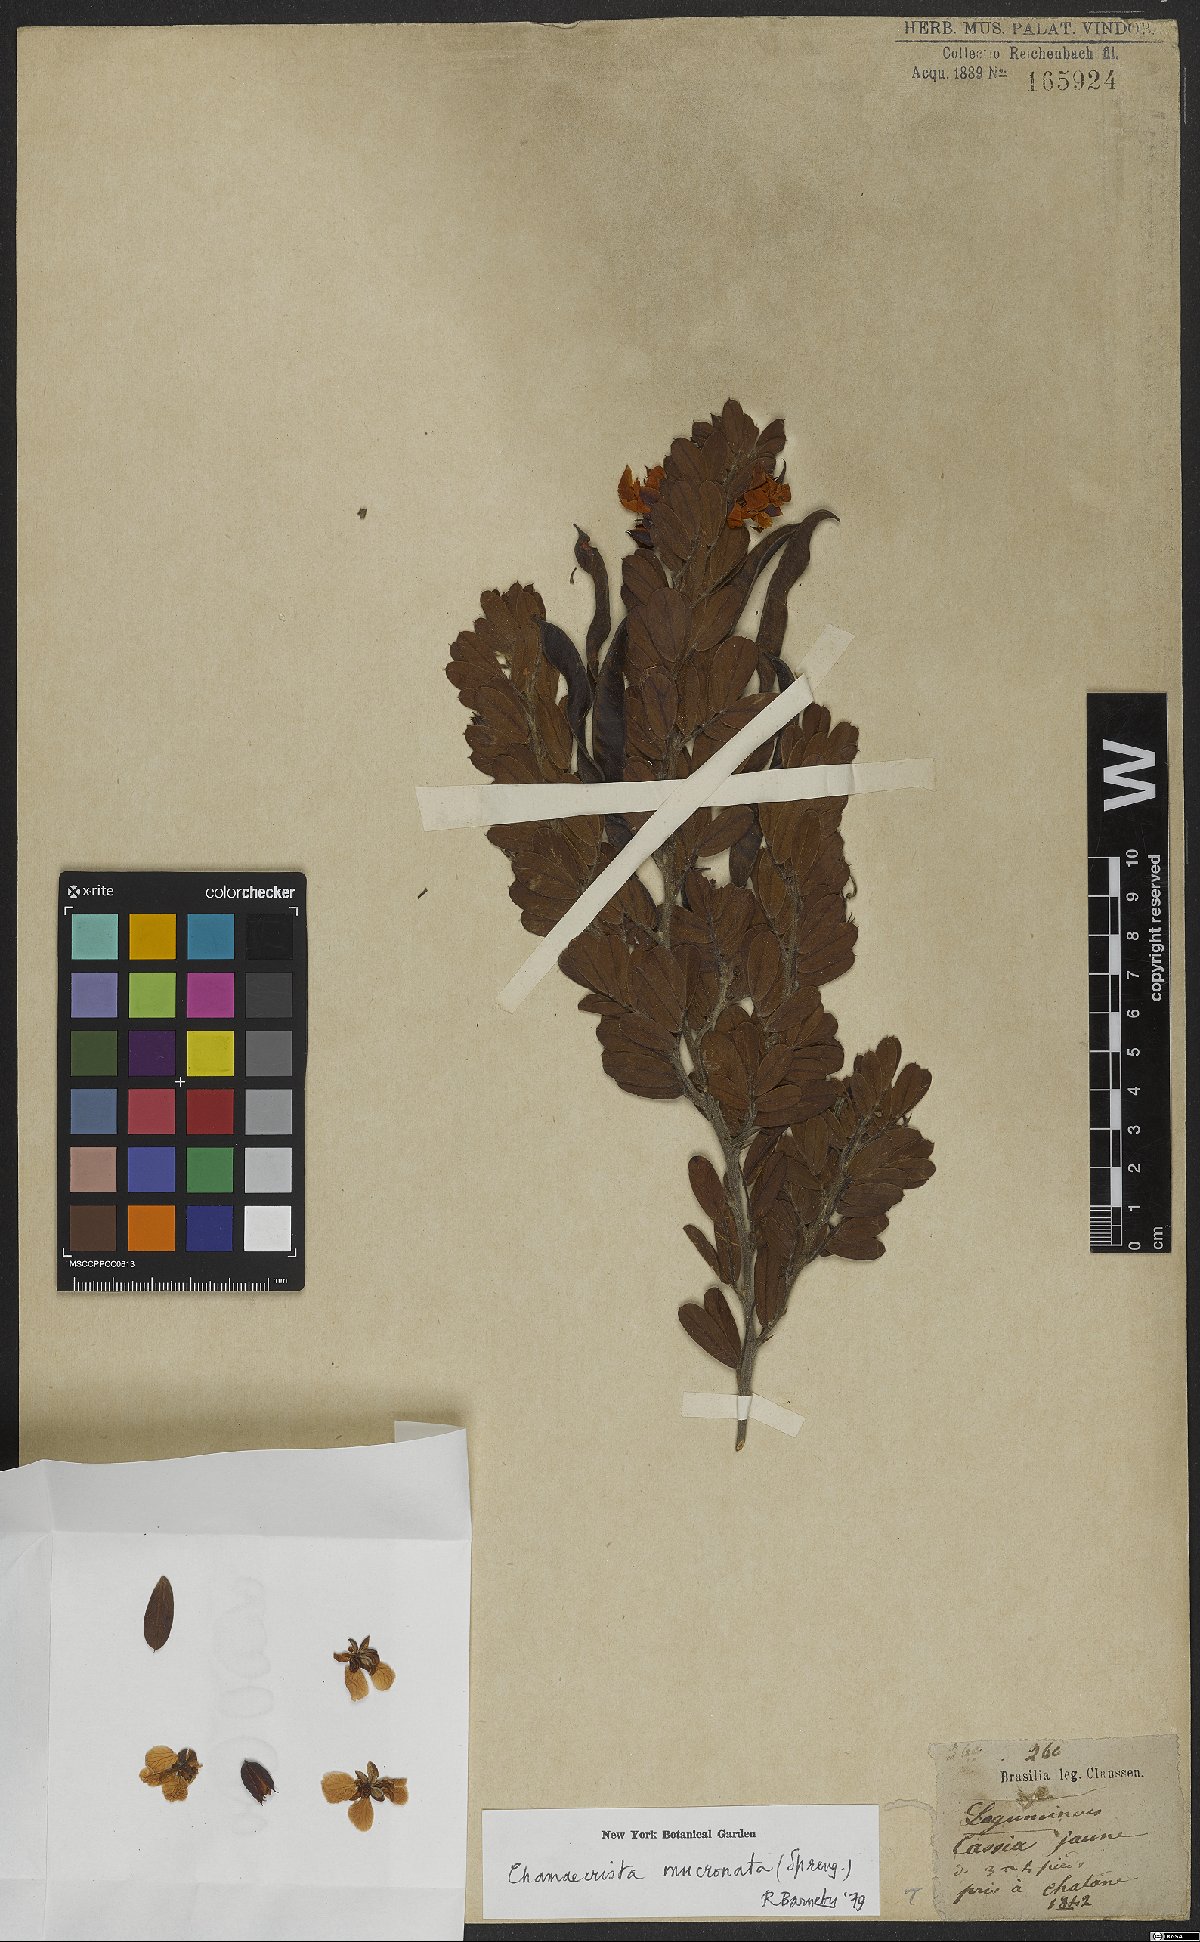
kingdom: Plantae
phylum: Tracheophyta
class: Magnoliopsida
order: Fabales
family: Fabaceae
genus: Chamaecrista
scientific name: Chamaecrista mucronata
